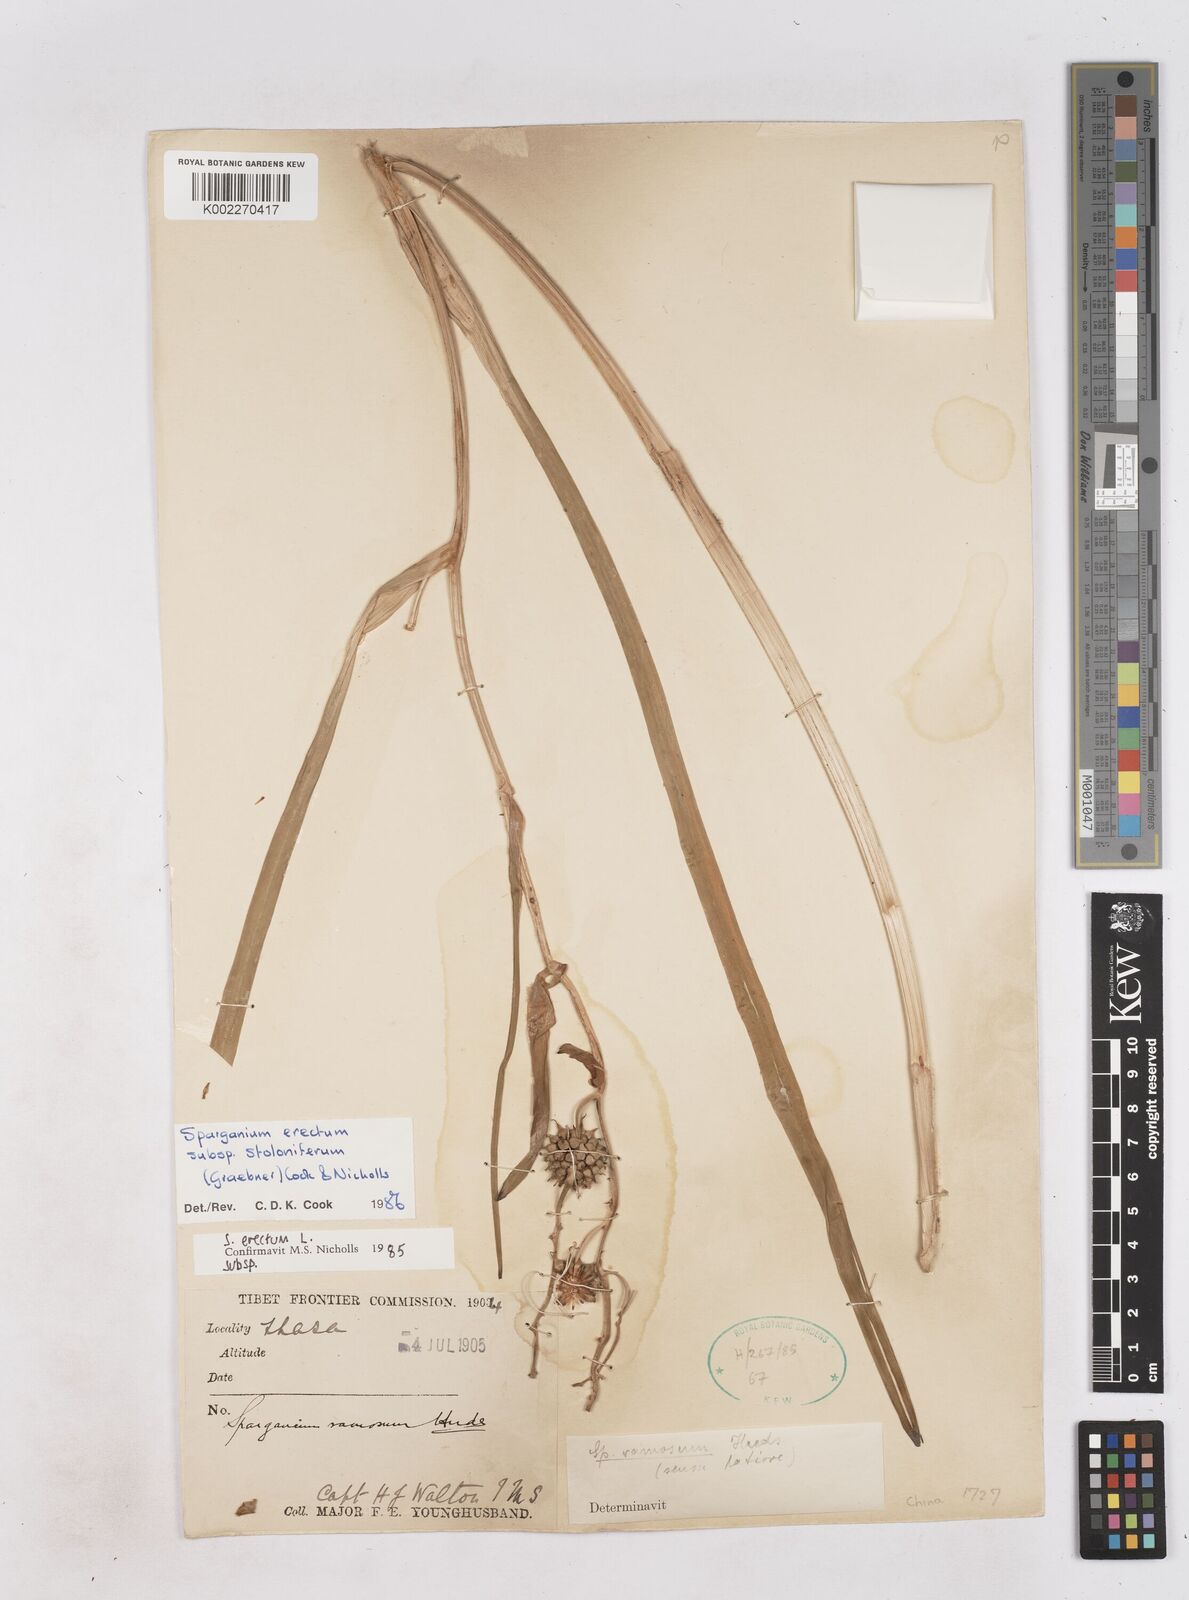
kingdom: Plantae
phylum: Tracheophyta
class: Liliopsida
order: Poales
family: Typhaceae
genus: Sparganium
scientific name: Sparganium erectum
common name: Branched bur-reed
